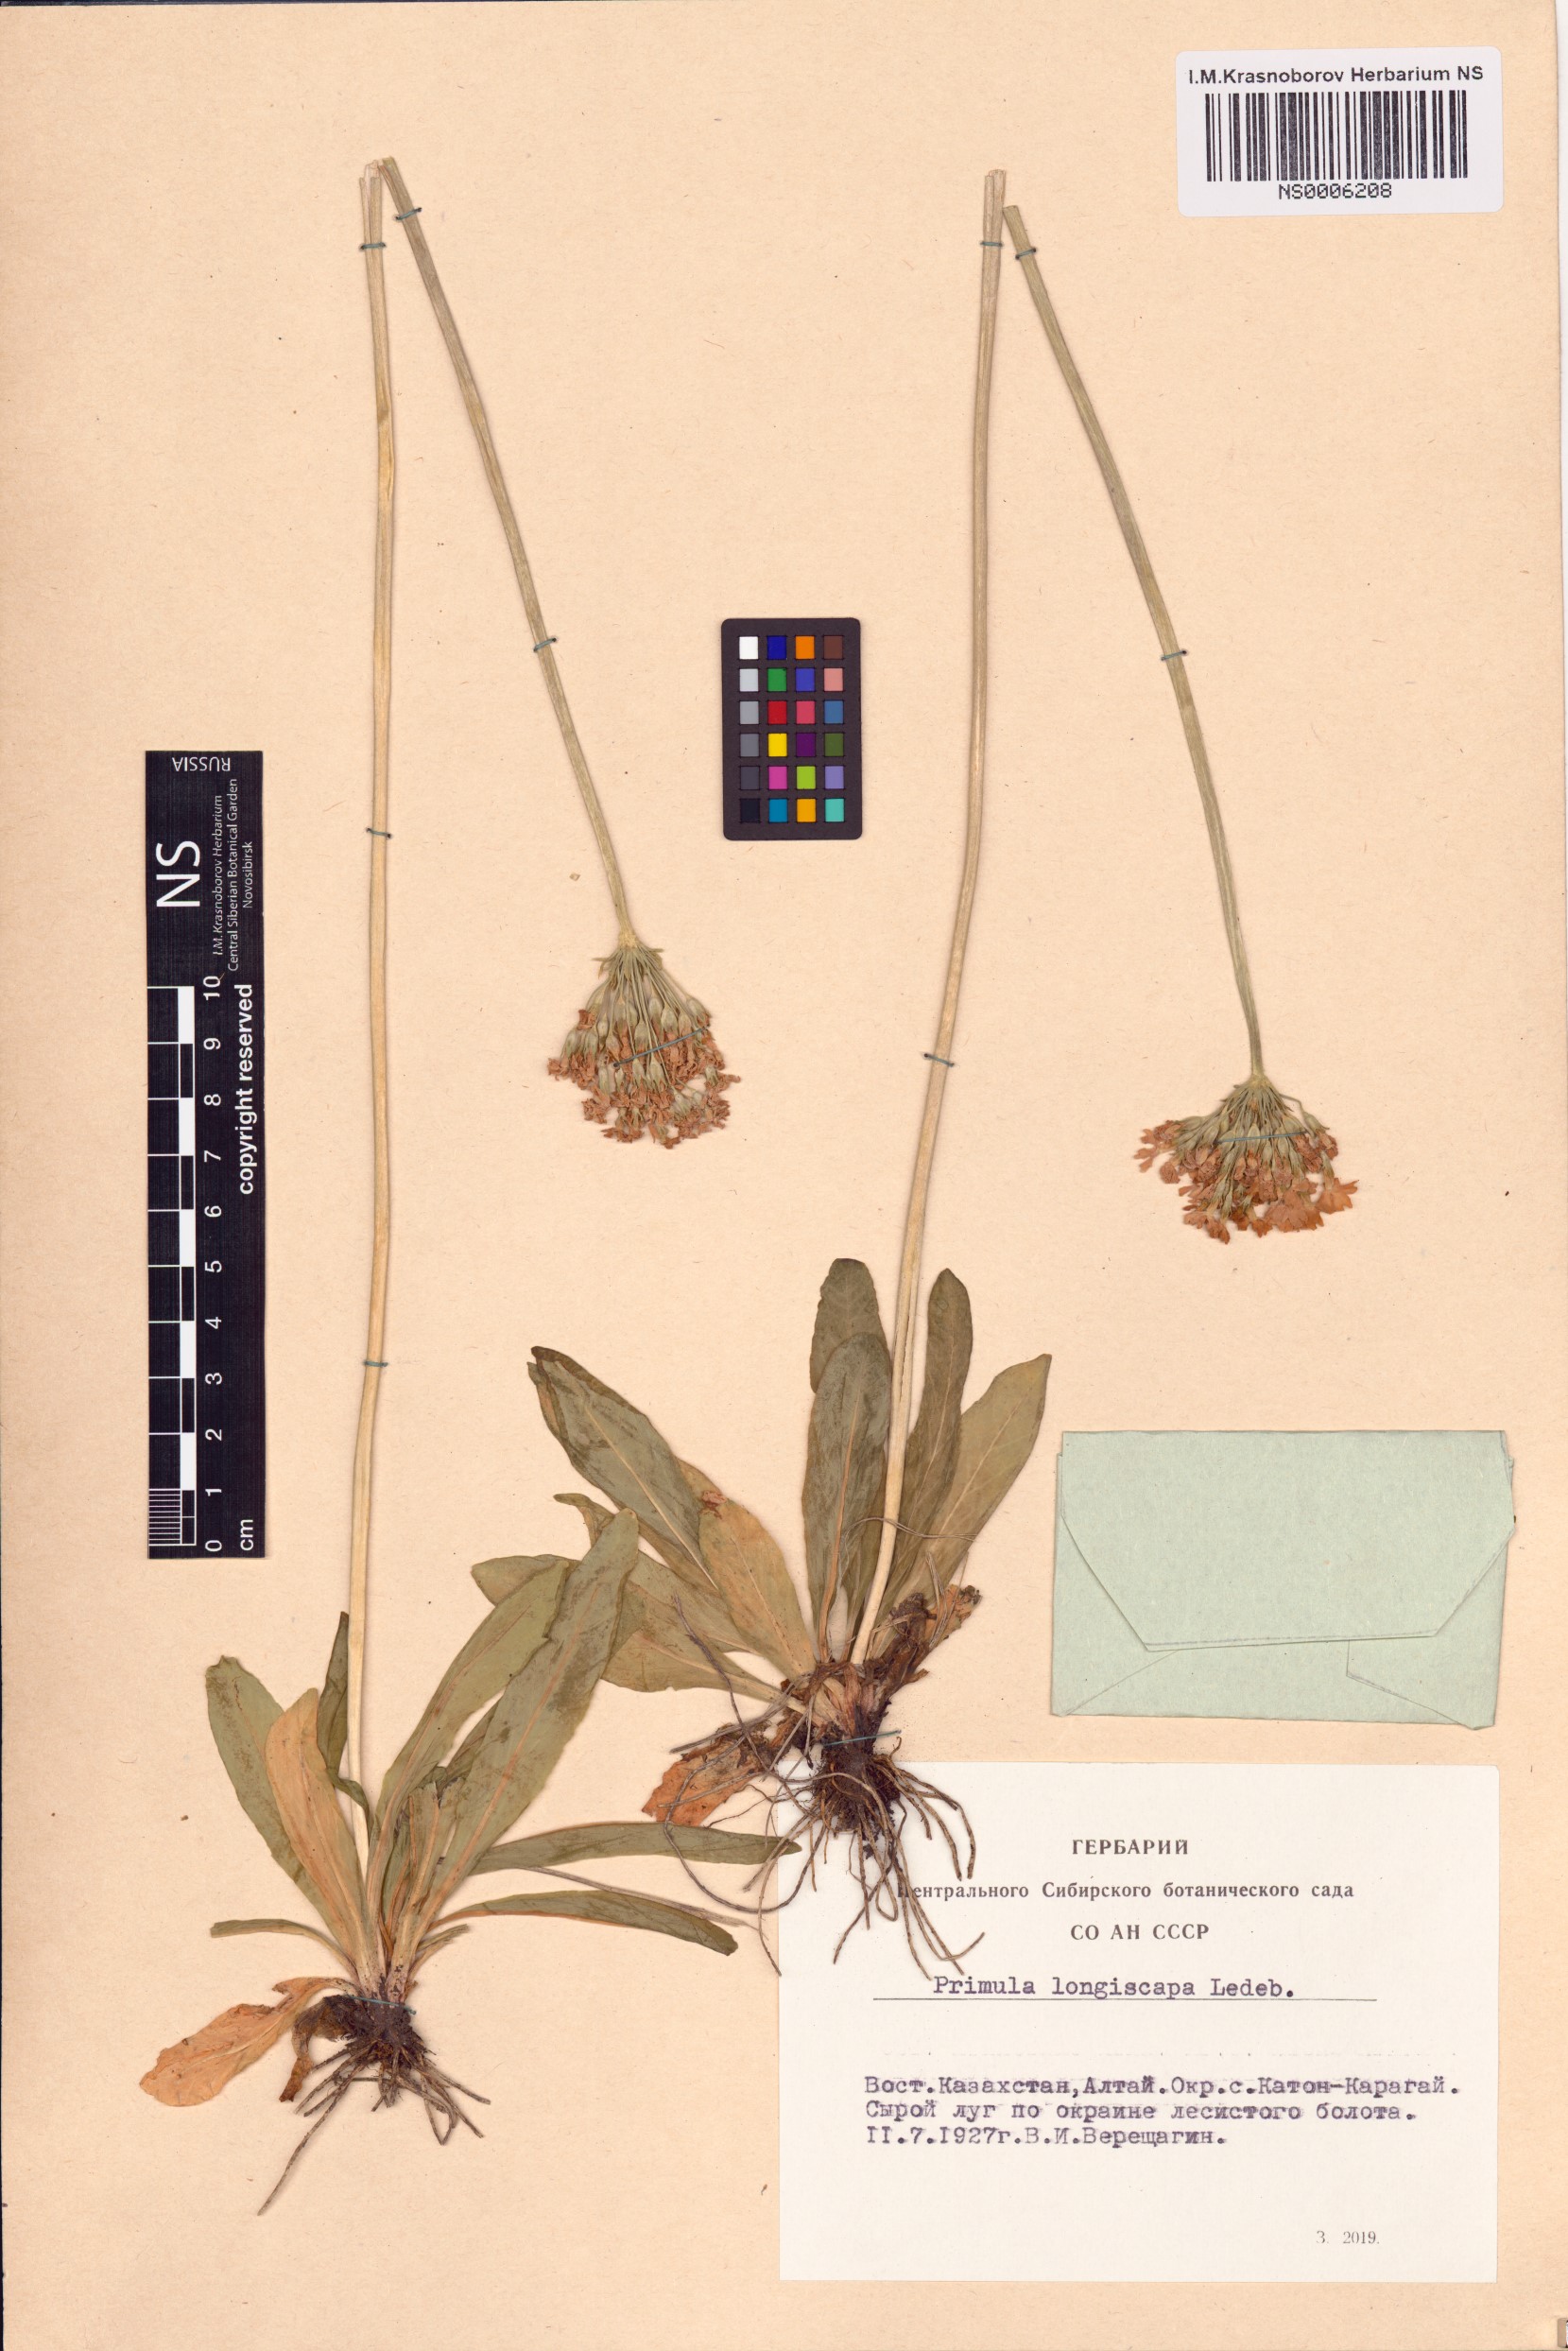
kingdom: Plantae
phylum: Tracheophyta
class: Magnoliopsida
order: Ericales
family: Primulaceae
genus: Primula
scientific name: Primula longiscapa
